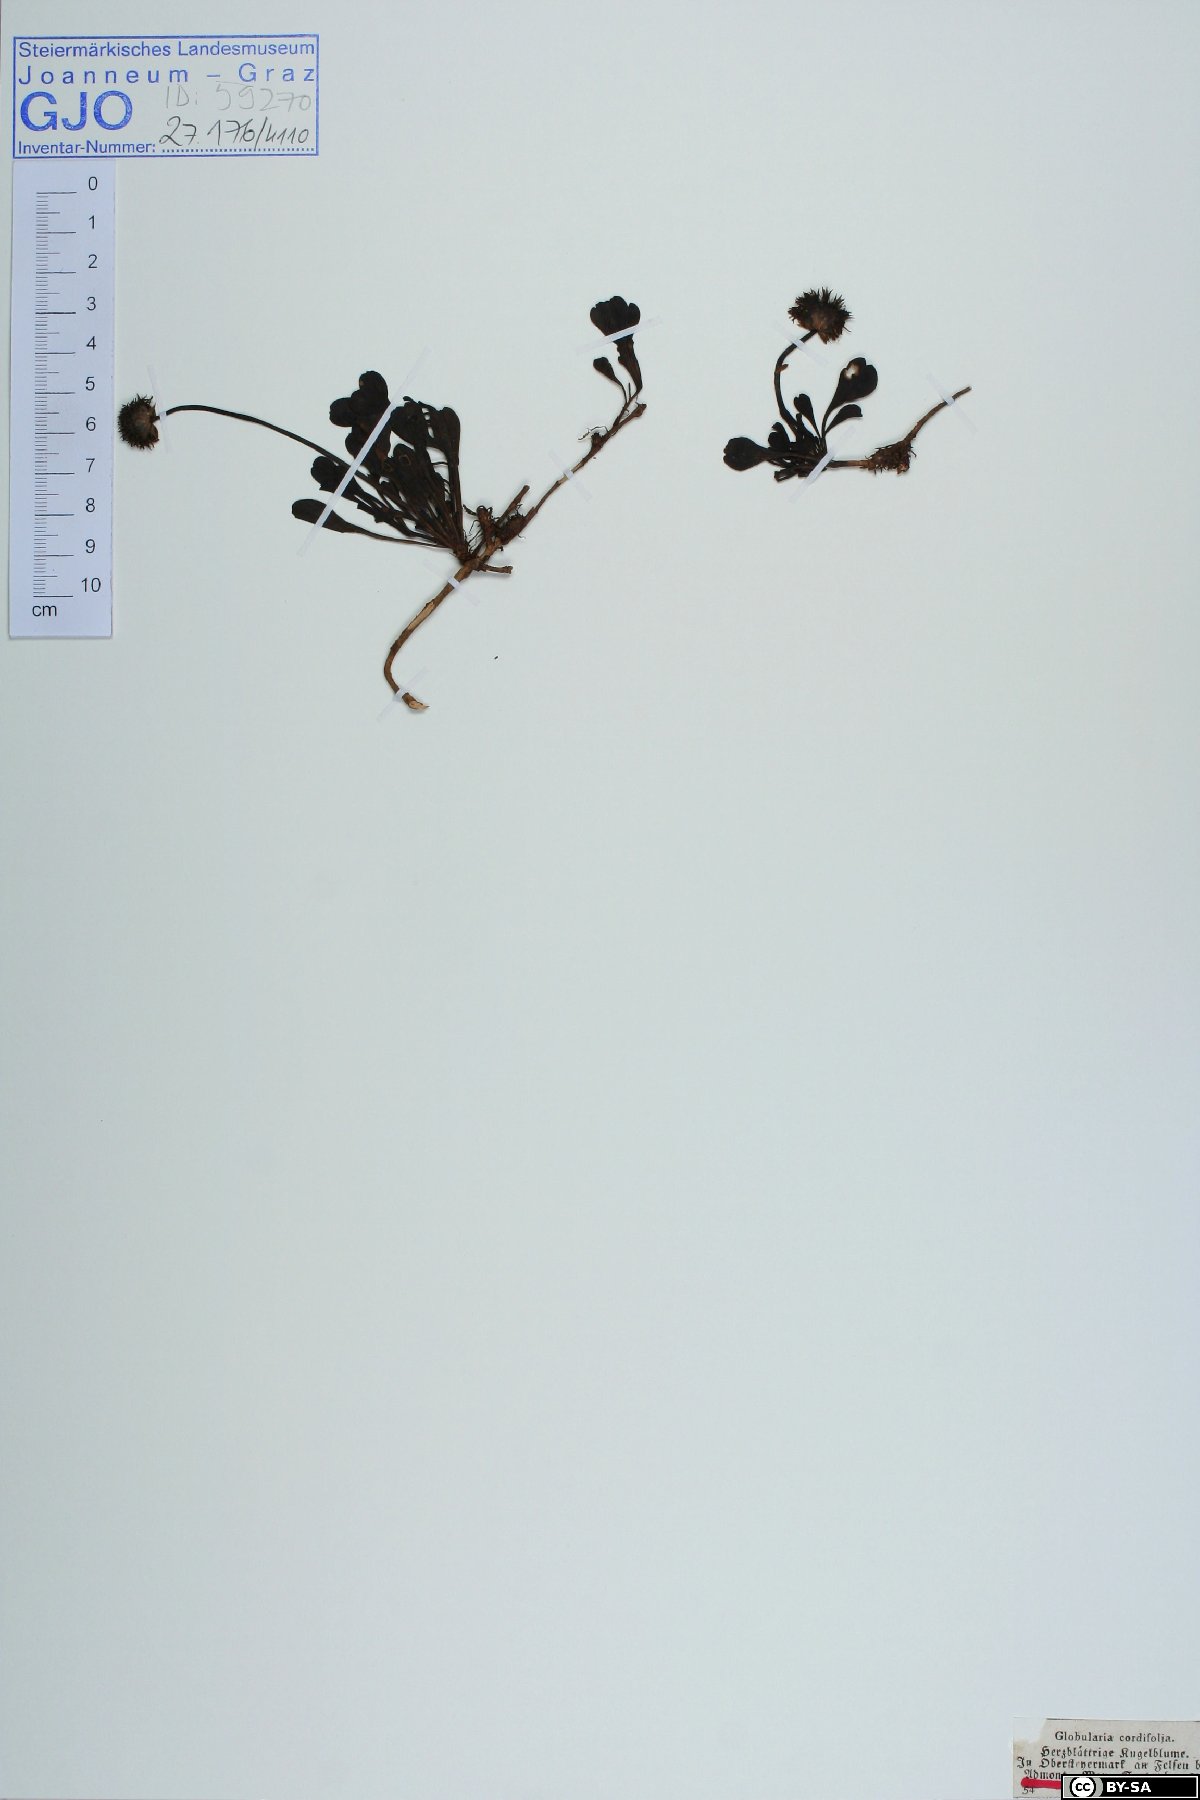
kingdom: Plantae
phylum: Tracheophyta
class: Magnoliopsida
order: Lamiales
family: Plantaginaceae
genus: Globularia
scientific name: Globularia cordifolia
